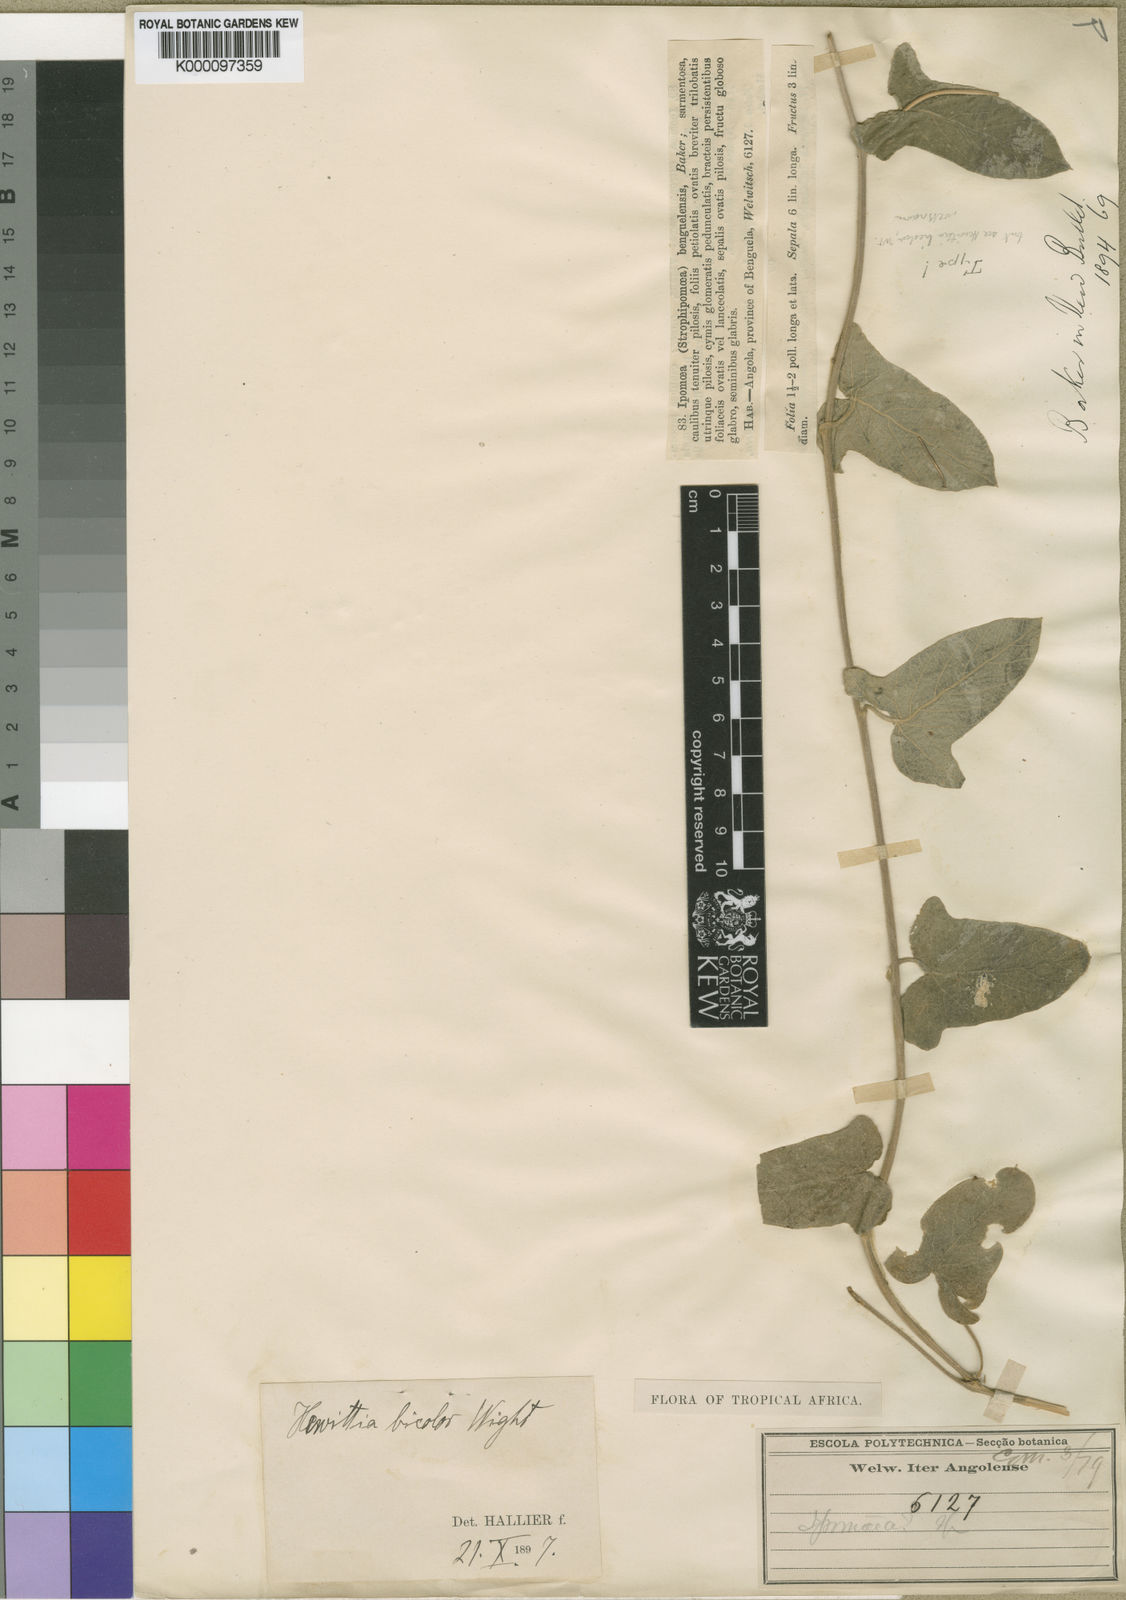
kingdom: Plantae
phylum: Tracheophyta
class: Magnoliopsida
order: Solanales
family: Convolvulaceae
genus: Hewittia
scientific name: Hewittia malabarica
